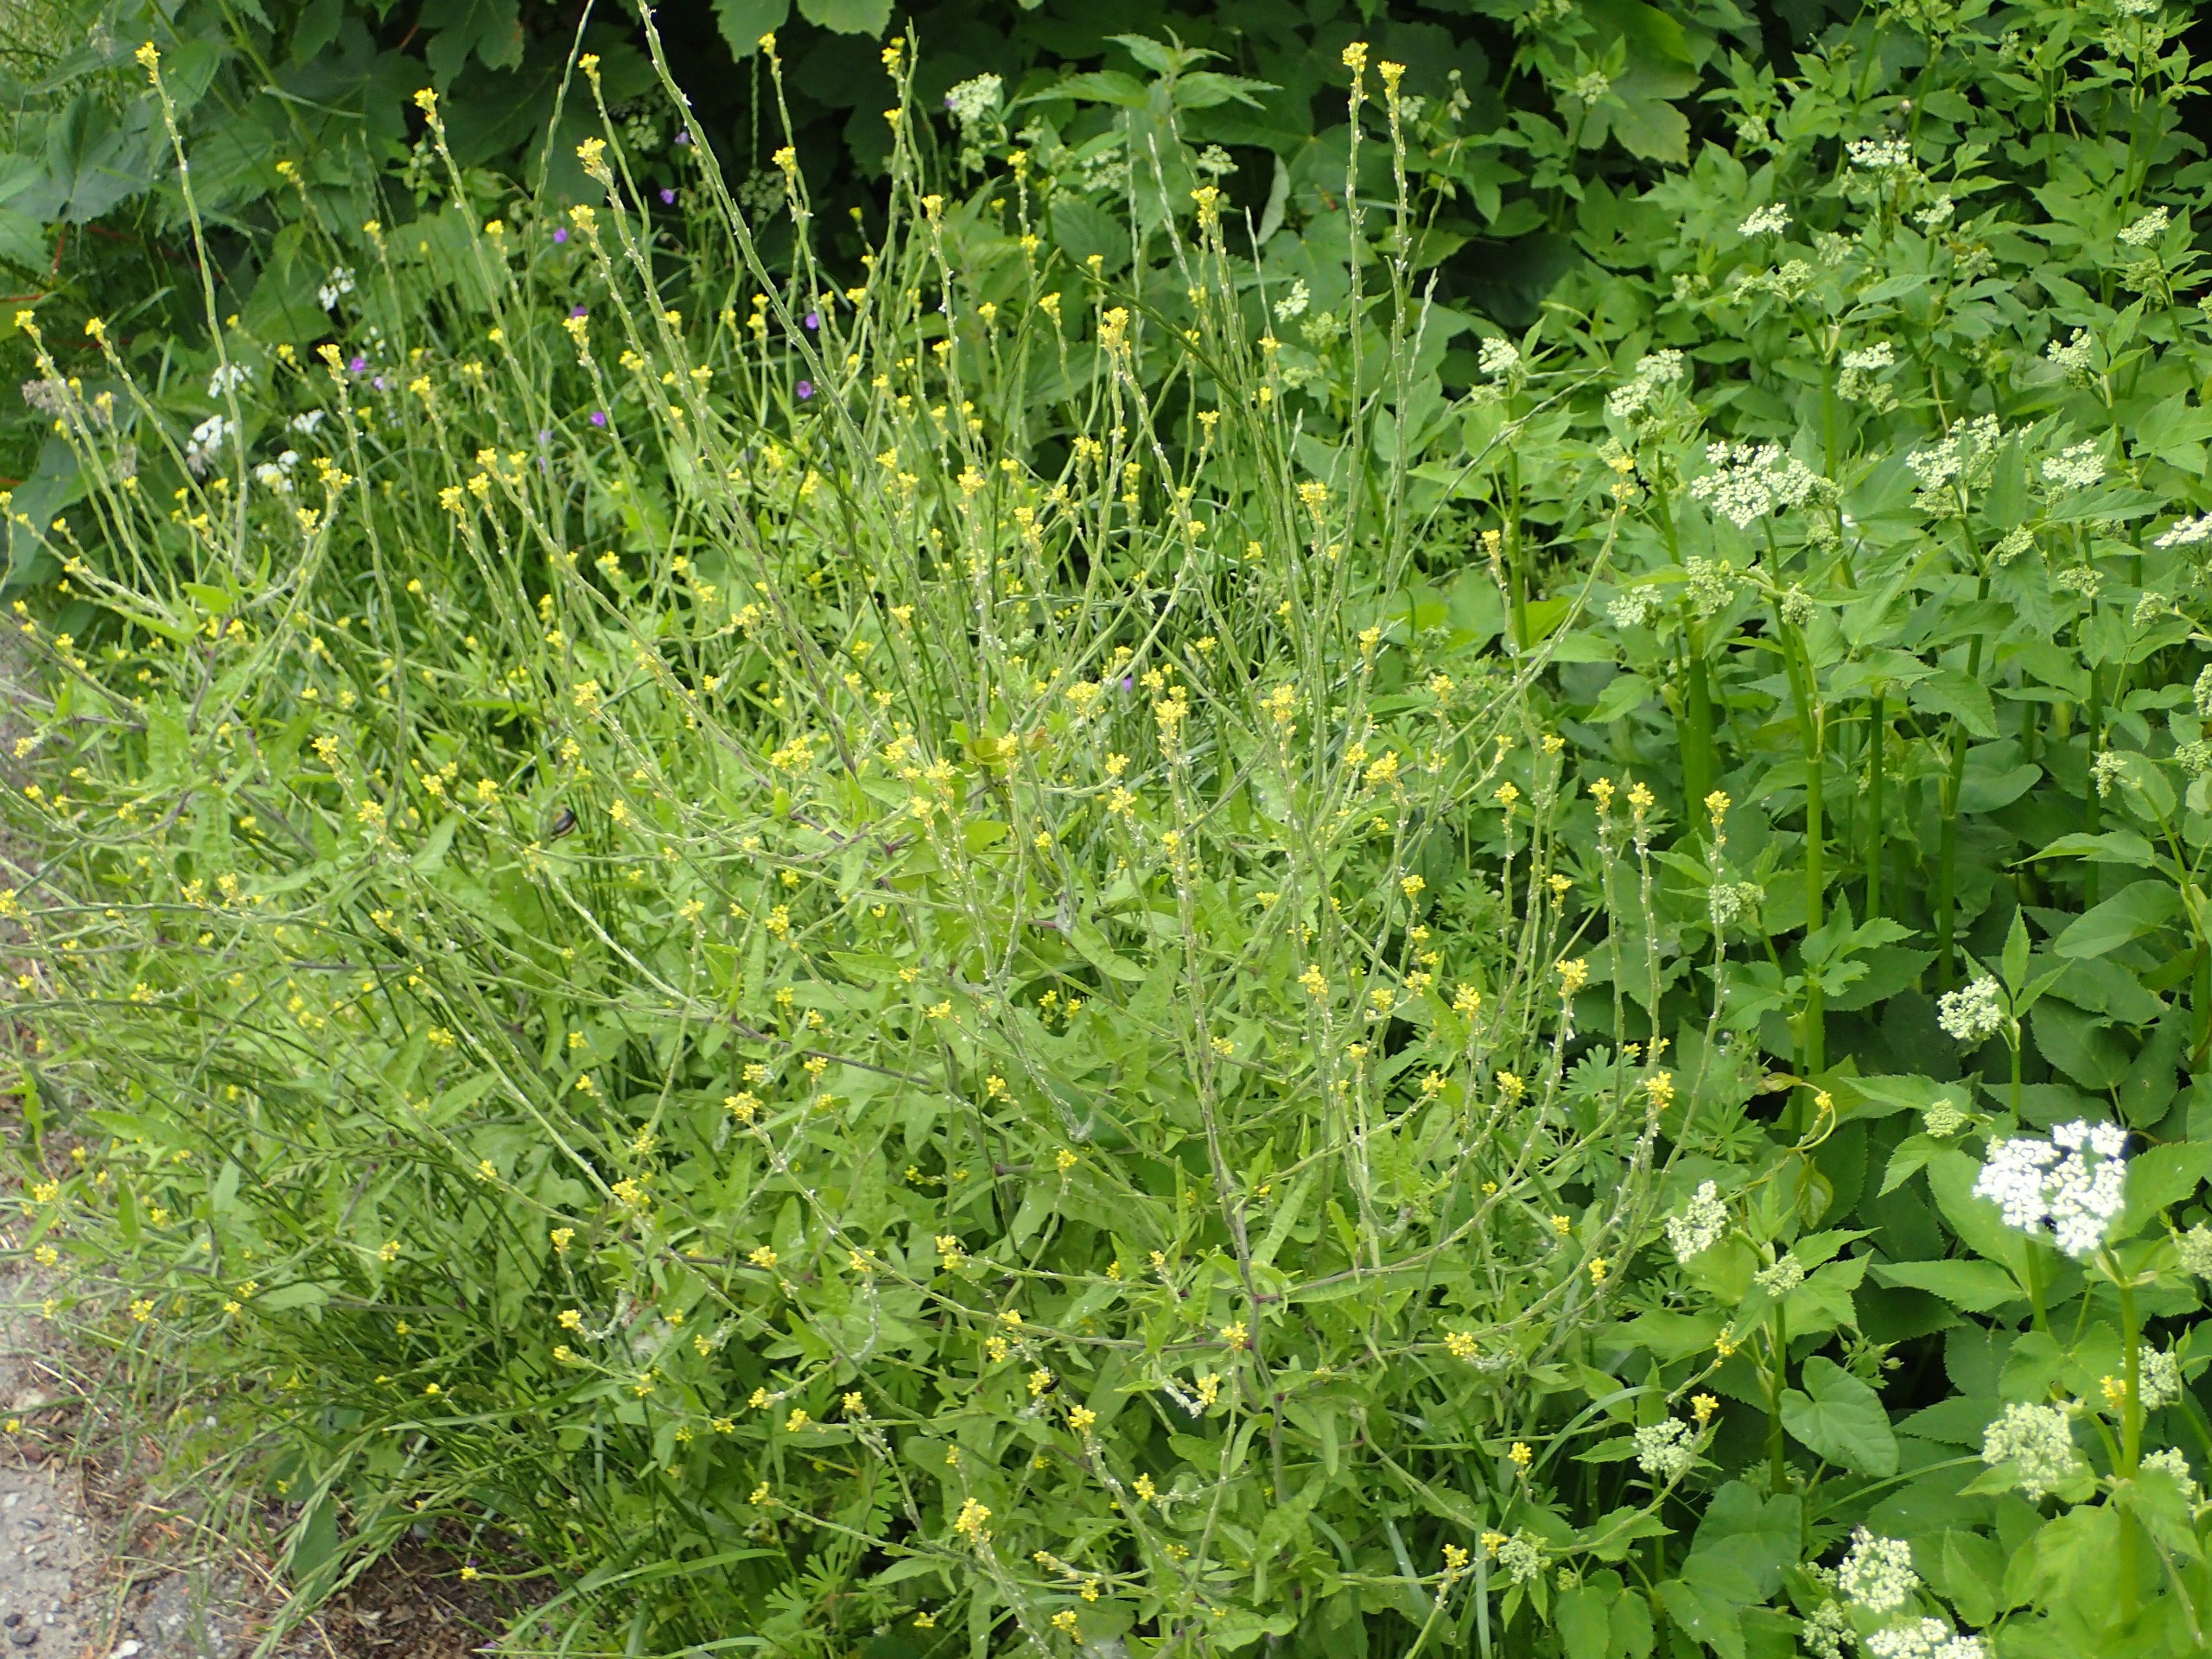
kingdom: Plantae
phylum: Tracheophyta
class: Magnoliopsida
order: Brassicales
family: Brassicaceae
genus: Sisymbrium
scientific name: Sisymbrium officinale
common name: Rank vejsennep
